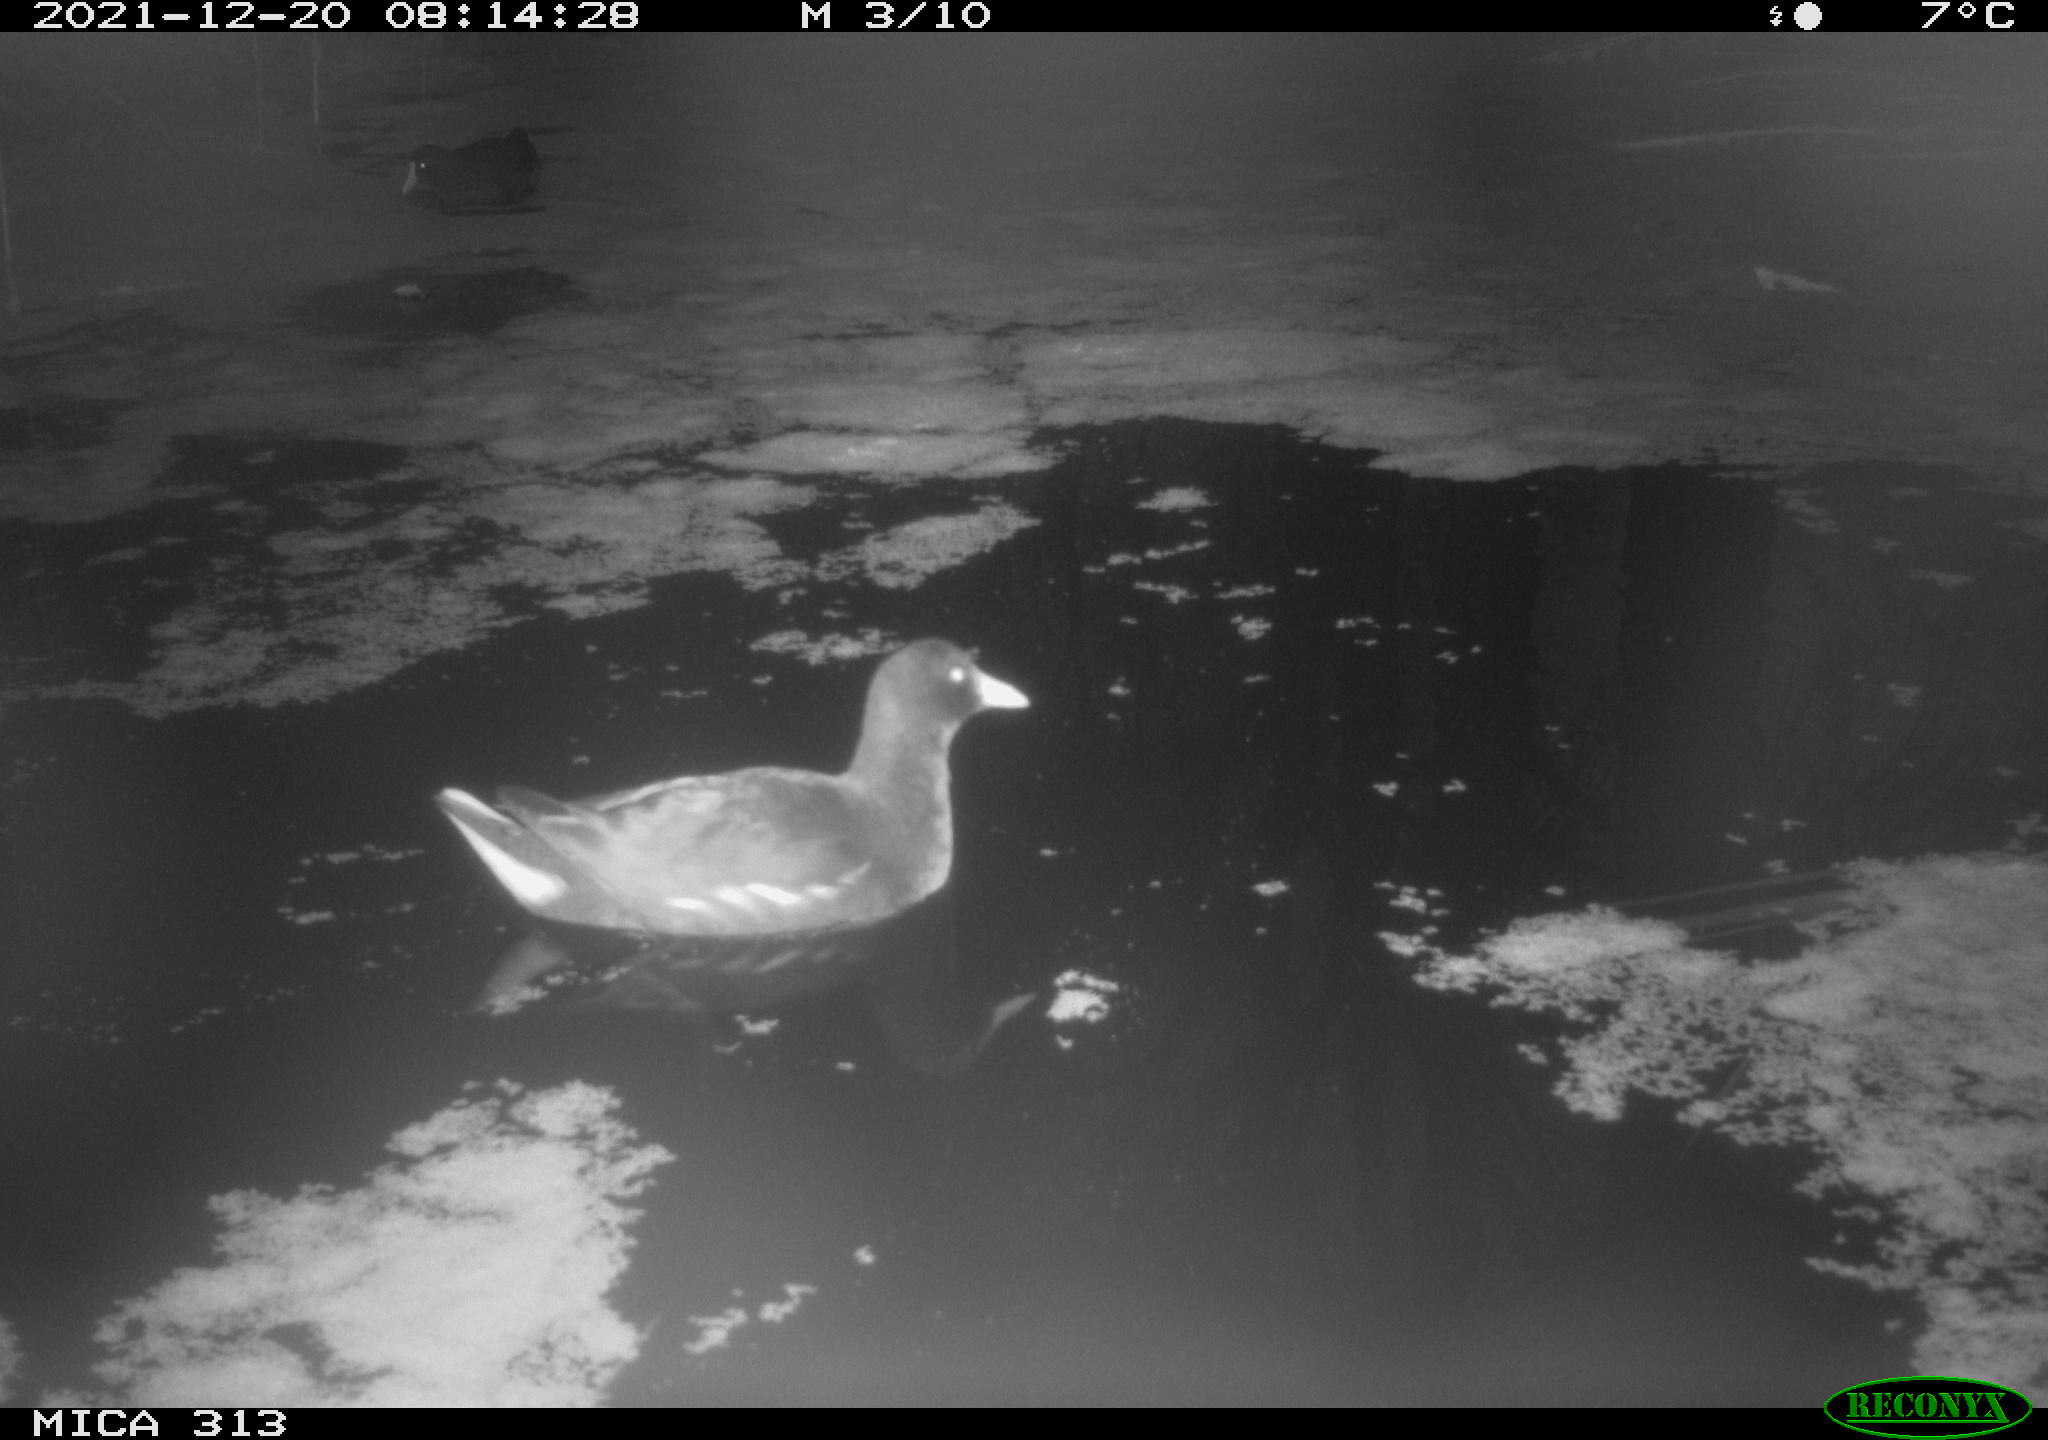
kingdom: Animalia
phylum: Chordata
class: Aves
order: Gruiformes
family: Rallidae
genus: Gallinula
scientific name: Gallinula chloropus
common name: Common moorhen
